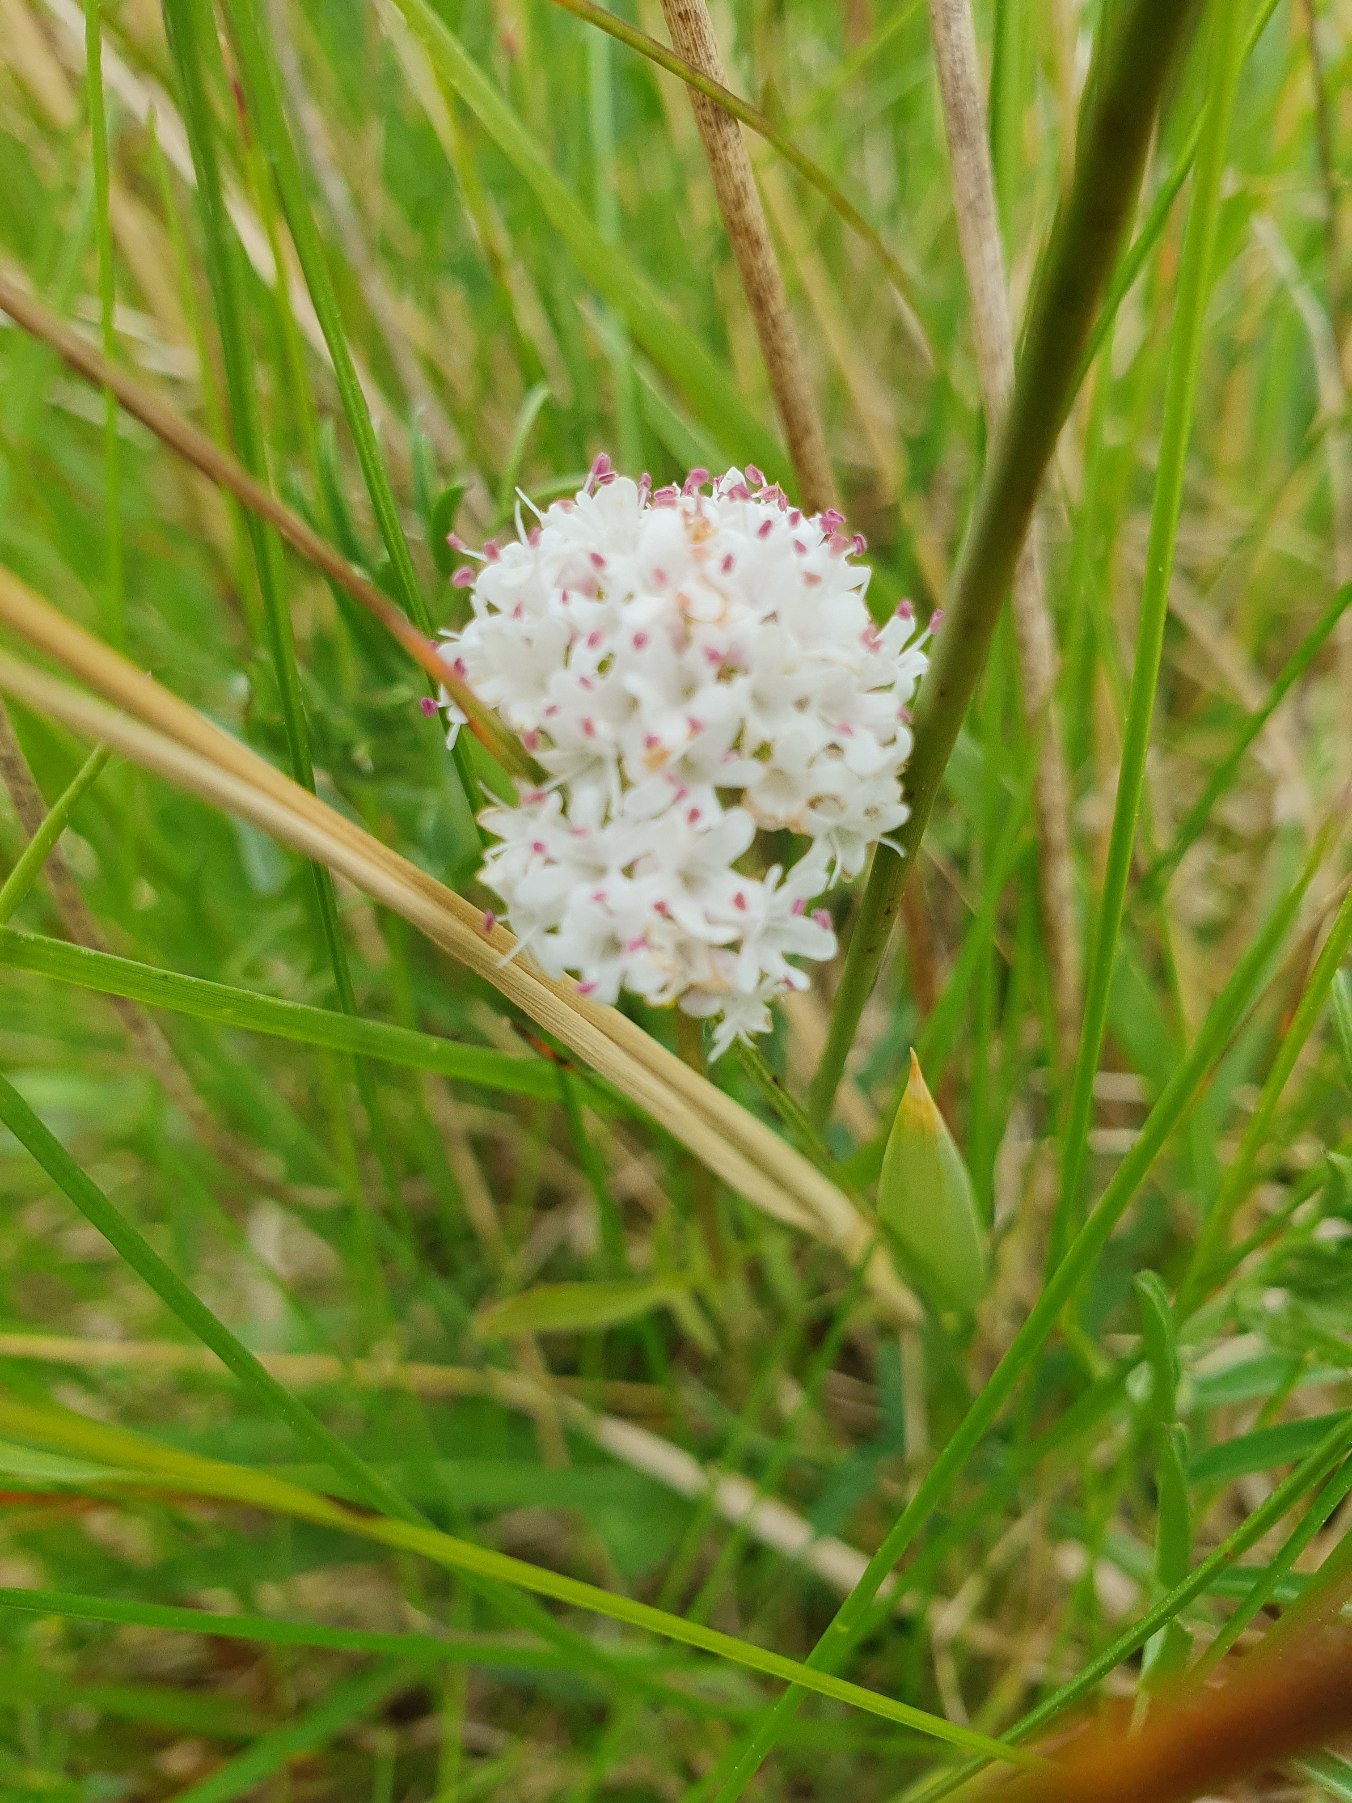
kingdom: Plantae
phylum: Tracheophyta
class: Magnoliopsida
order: Dipsacales
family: Caprifoliaceae
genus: Valeriana
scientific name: Valeriana dioica
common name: Tvebo baldrian
